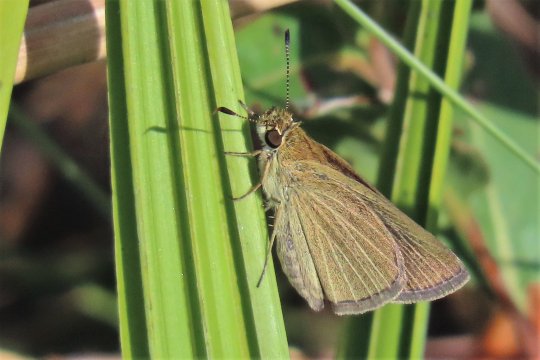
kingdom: Animalia
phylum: Arthropoda
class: Insecta
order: Lepidoptera
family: Hesperiidae
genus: Nastra
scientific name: Nastra lherminier
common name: Swarthy Skipper
